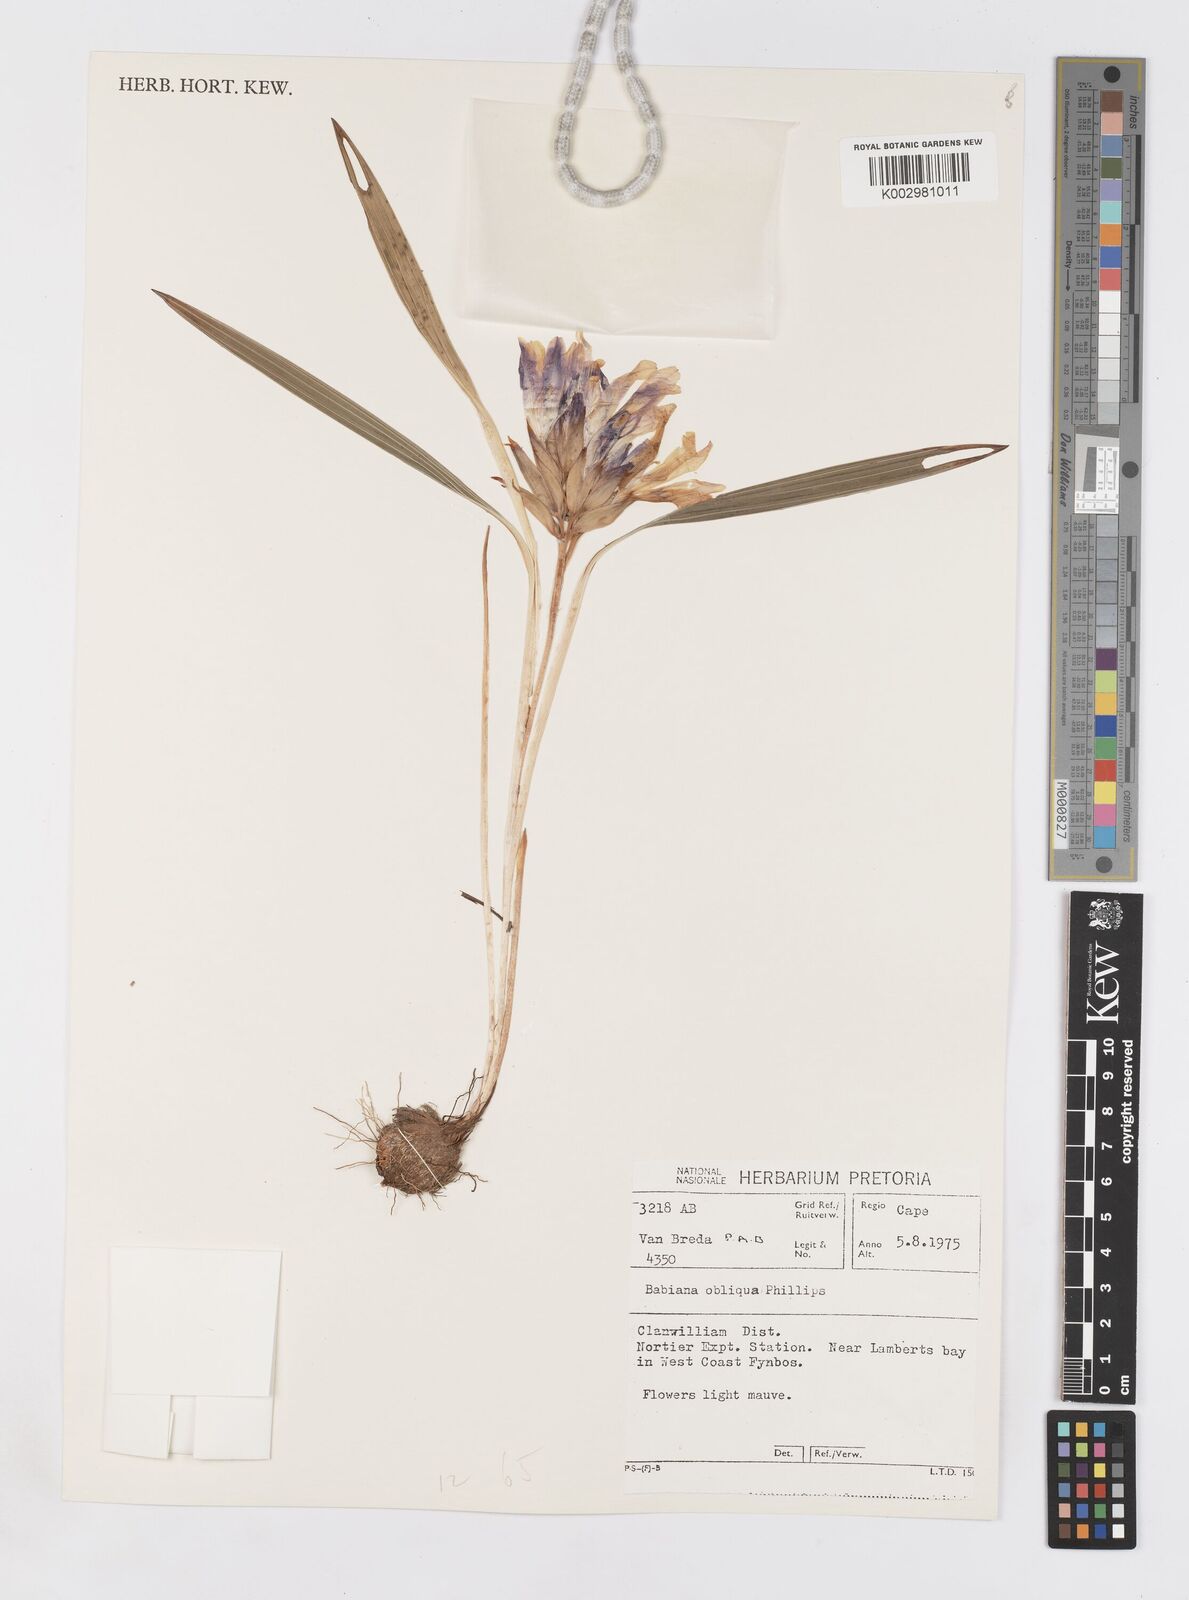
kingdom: Plantae
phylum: Tracheophyta
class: Liliopsida
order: Asparagales
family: Iridaceae
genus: Babiana
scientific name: Babiana ambigua
